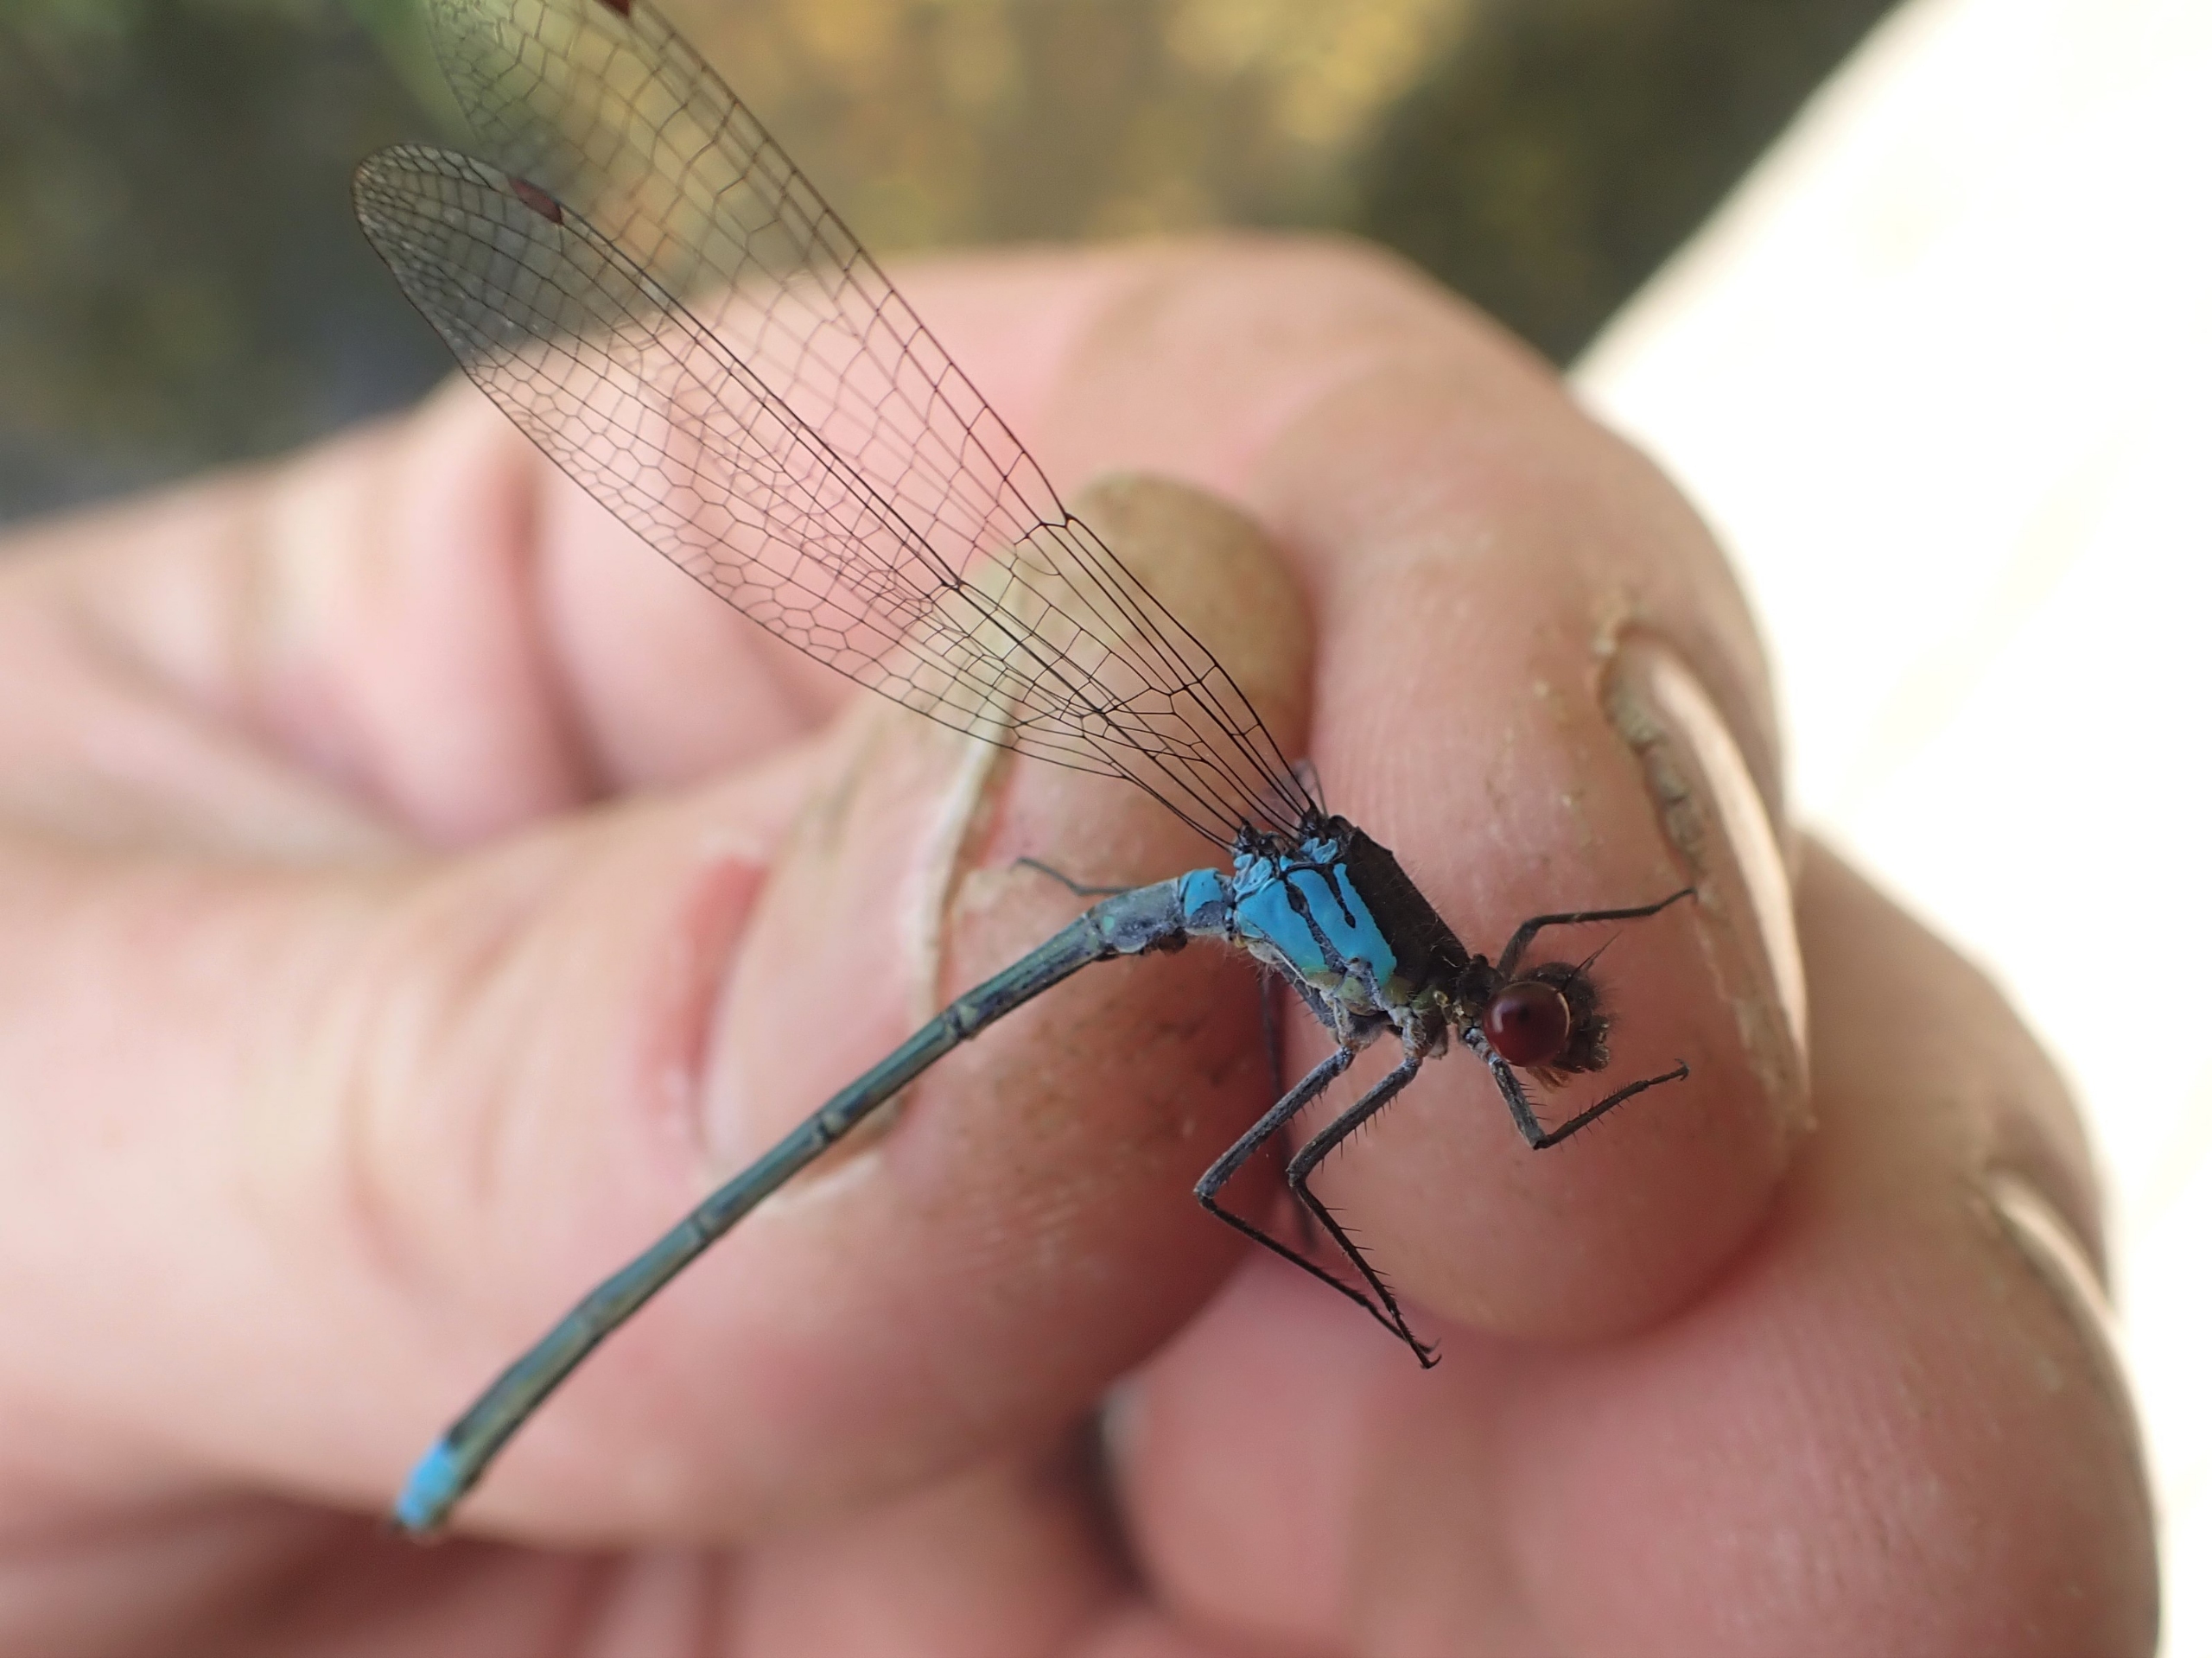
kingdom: Animalia
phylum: Arthropoda
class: Insecta
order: Odonata
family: Coenagrionidae
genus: Erythromma
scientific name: Erythromma najas
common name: Rødøjet vandnymfe
